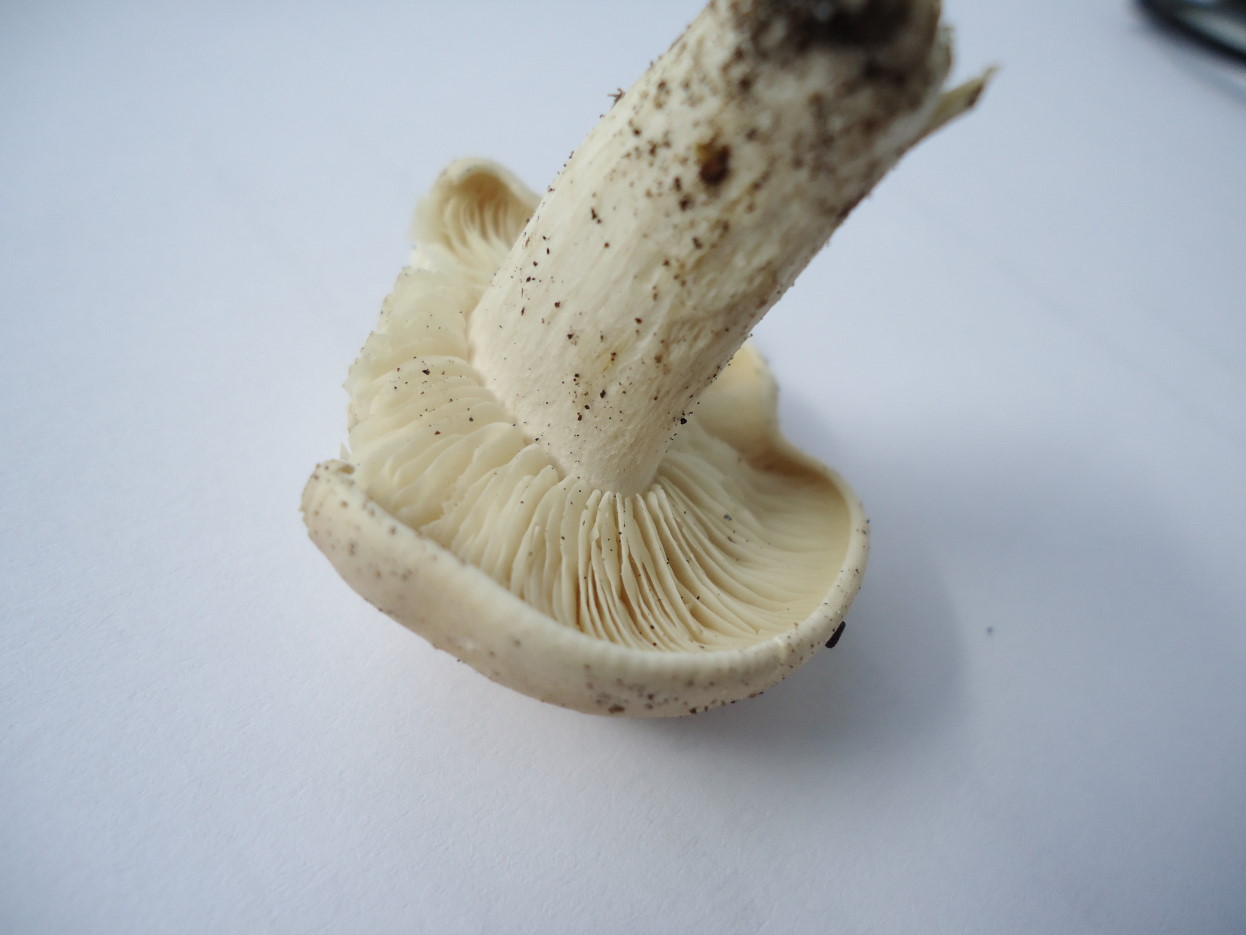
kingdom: Fungi
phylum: Basidiomycota
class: Agaricomycetes
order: Agaricales
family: Lyophyllaceae
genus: Calocybe
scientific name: Calocybe gambosa
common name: vårmusseron
